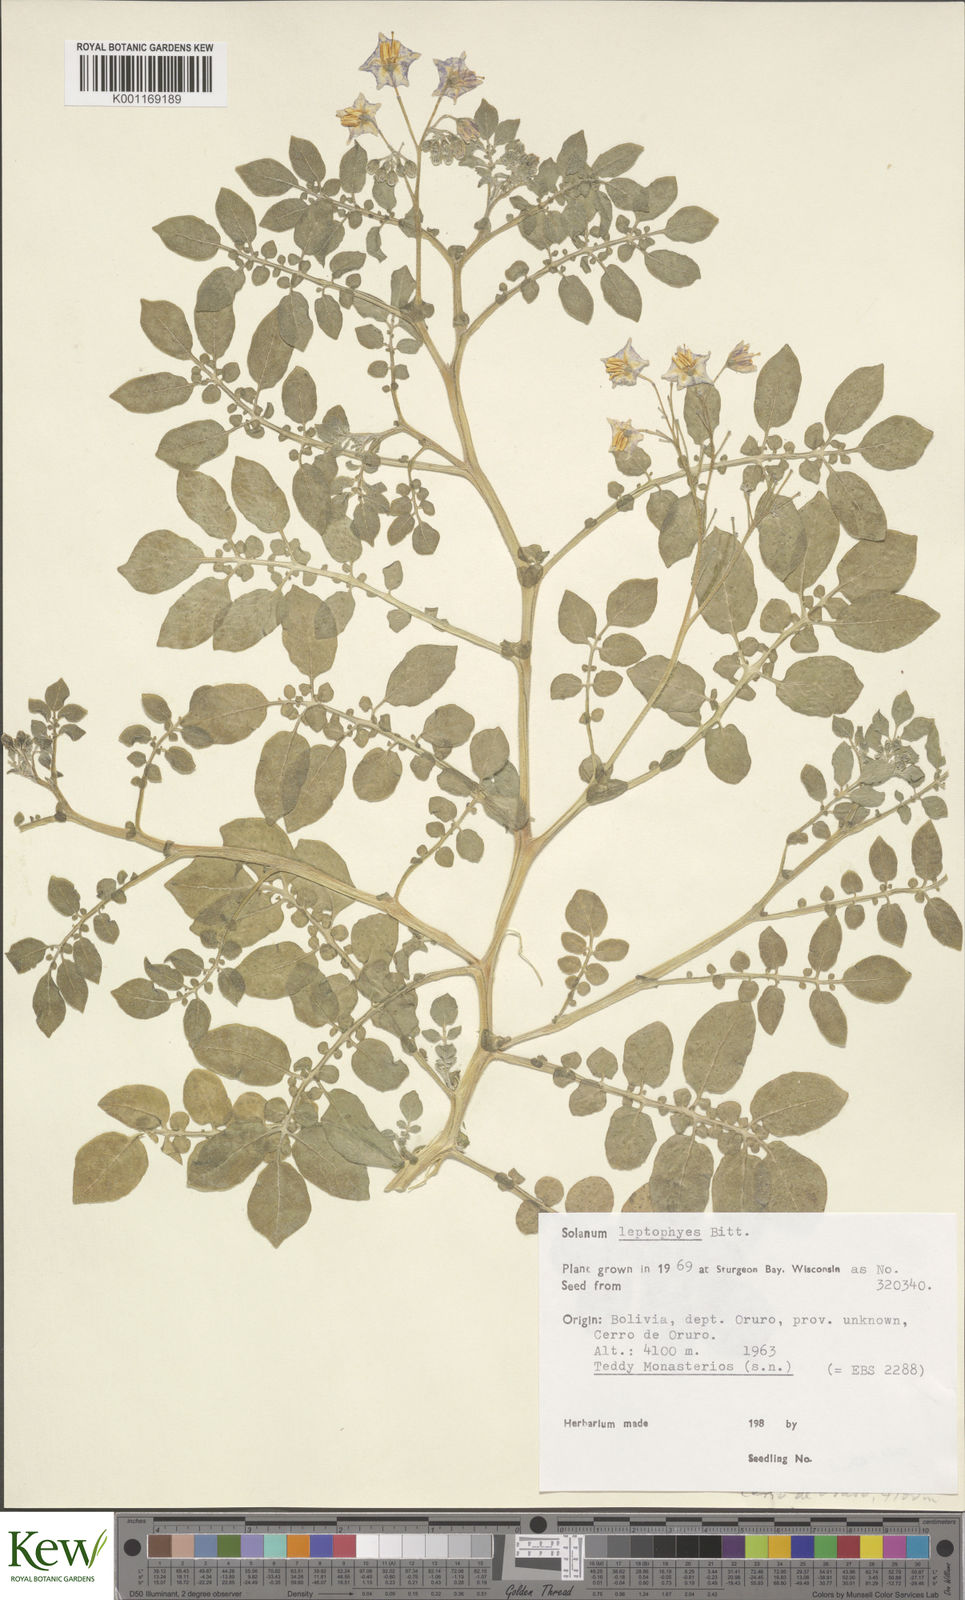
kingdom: Plantae
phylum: Tracheophyta
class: Magnoliopsida
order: Solanales
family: Solanaceae
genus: Solanum
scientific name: Solanum brevicaule
